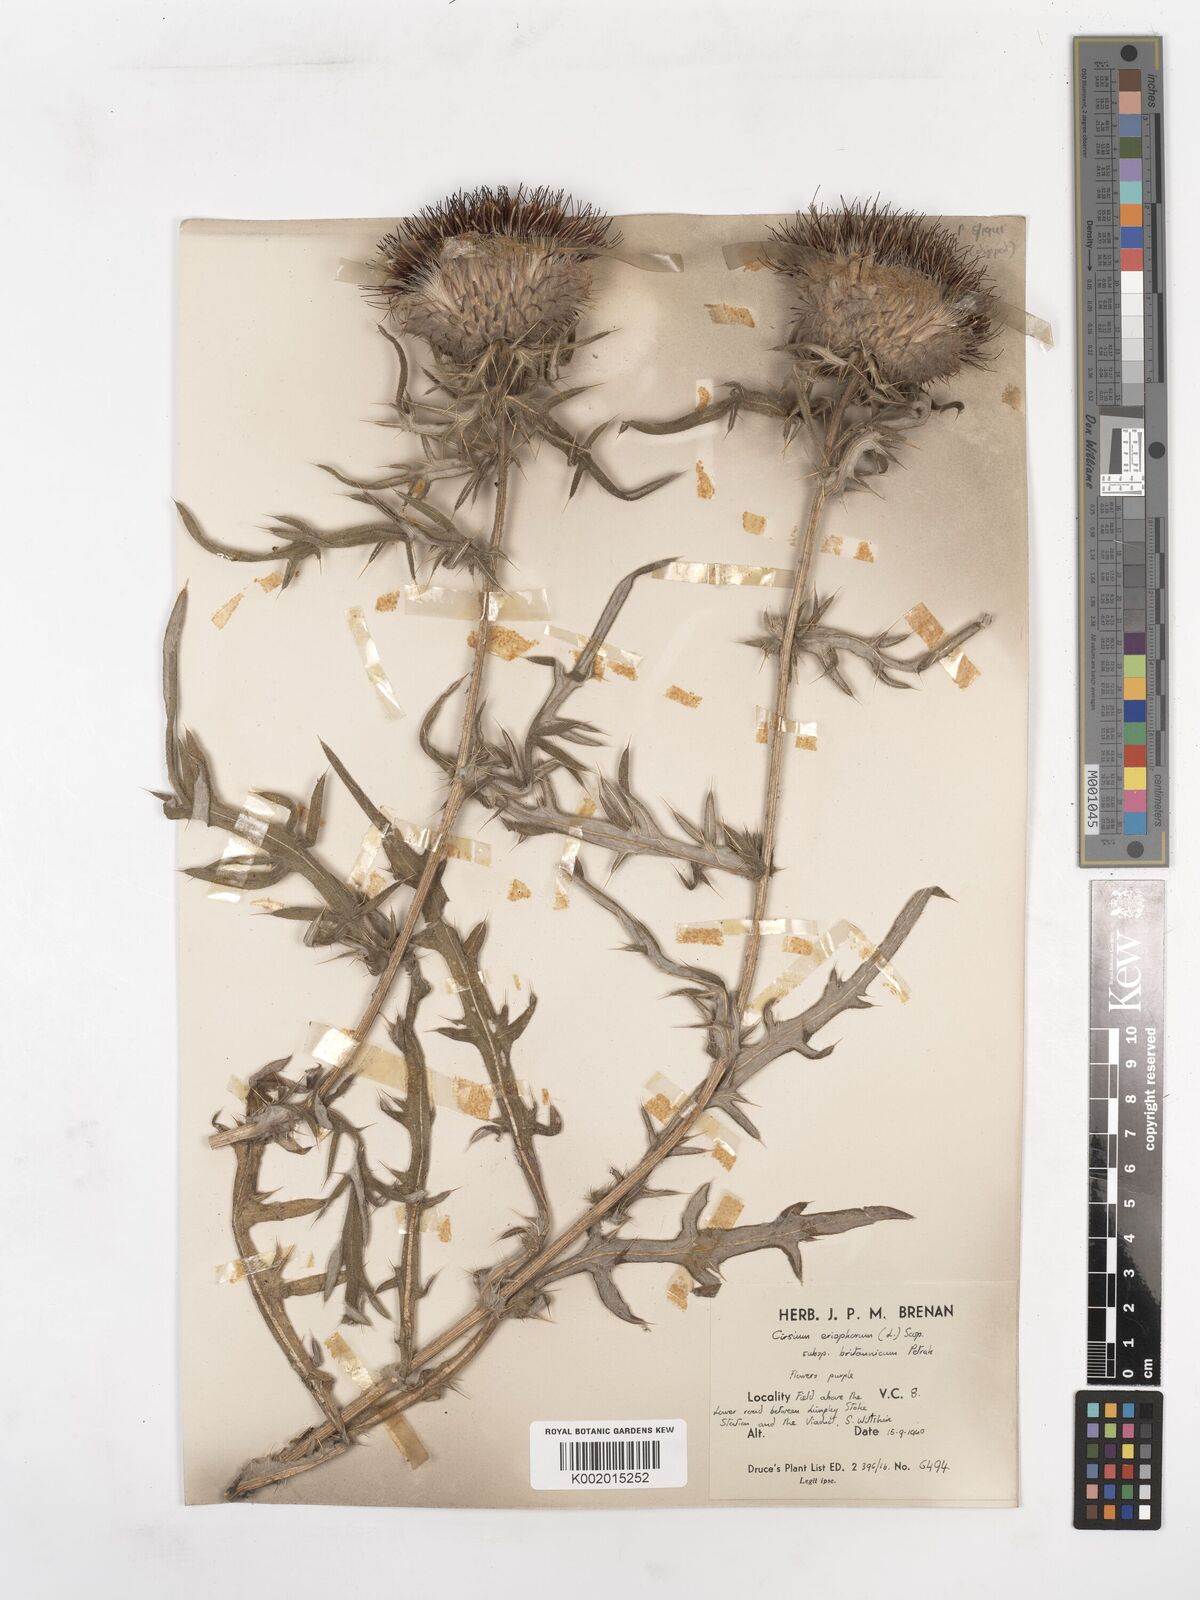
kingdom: Plantae
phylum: Tracheophyta
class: Magnoliopsida
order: Asterales
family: Asteraceae
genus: Lophiolepis
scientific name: Lophiolepis eriophora
